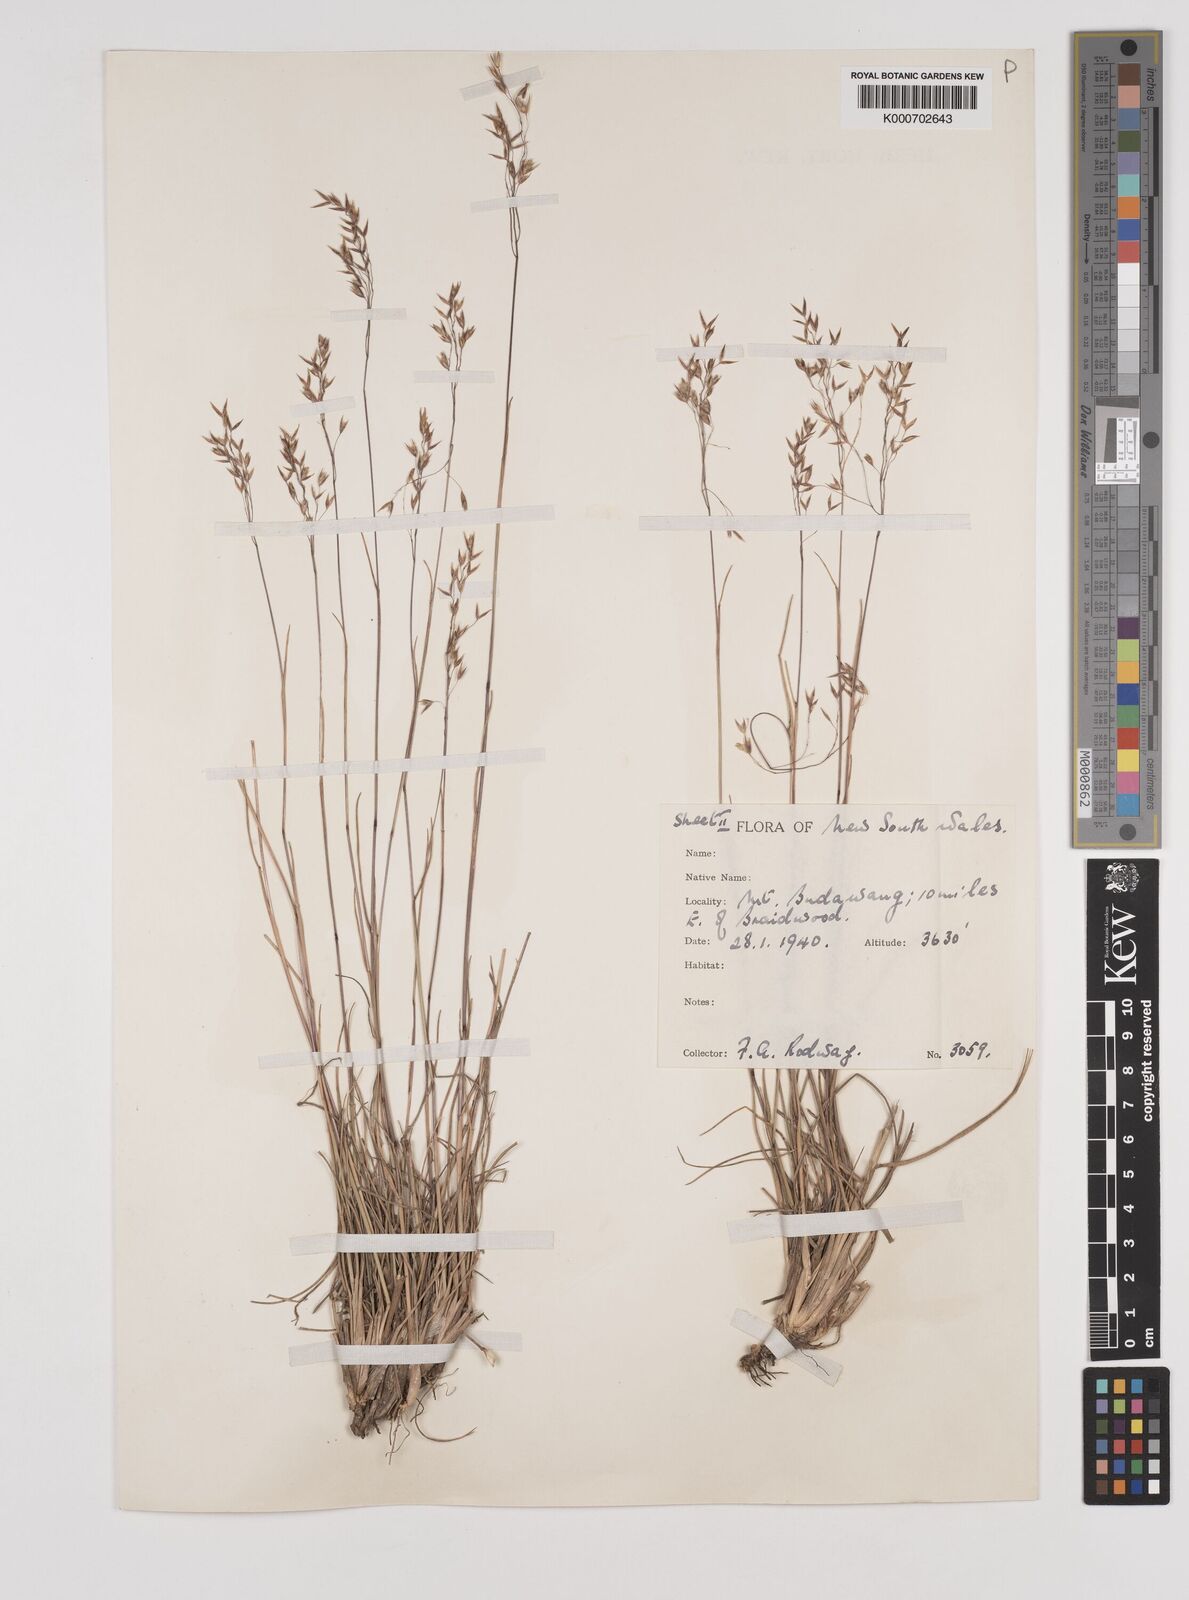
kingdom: Plantae
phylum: Tracheophyta
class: Liliopsida
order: Poales
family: Poaceae
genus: Plinthanthesis
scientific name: Plinthanthesis rodwayi
